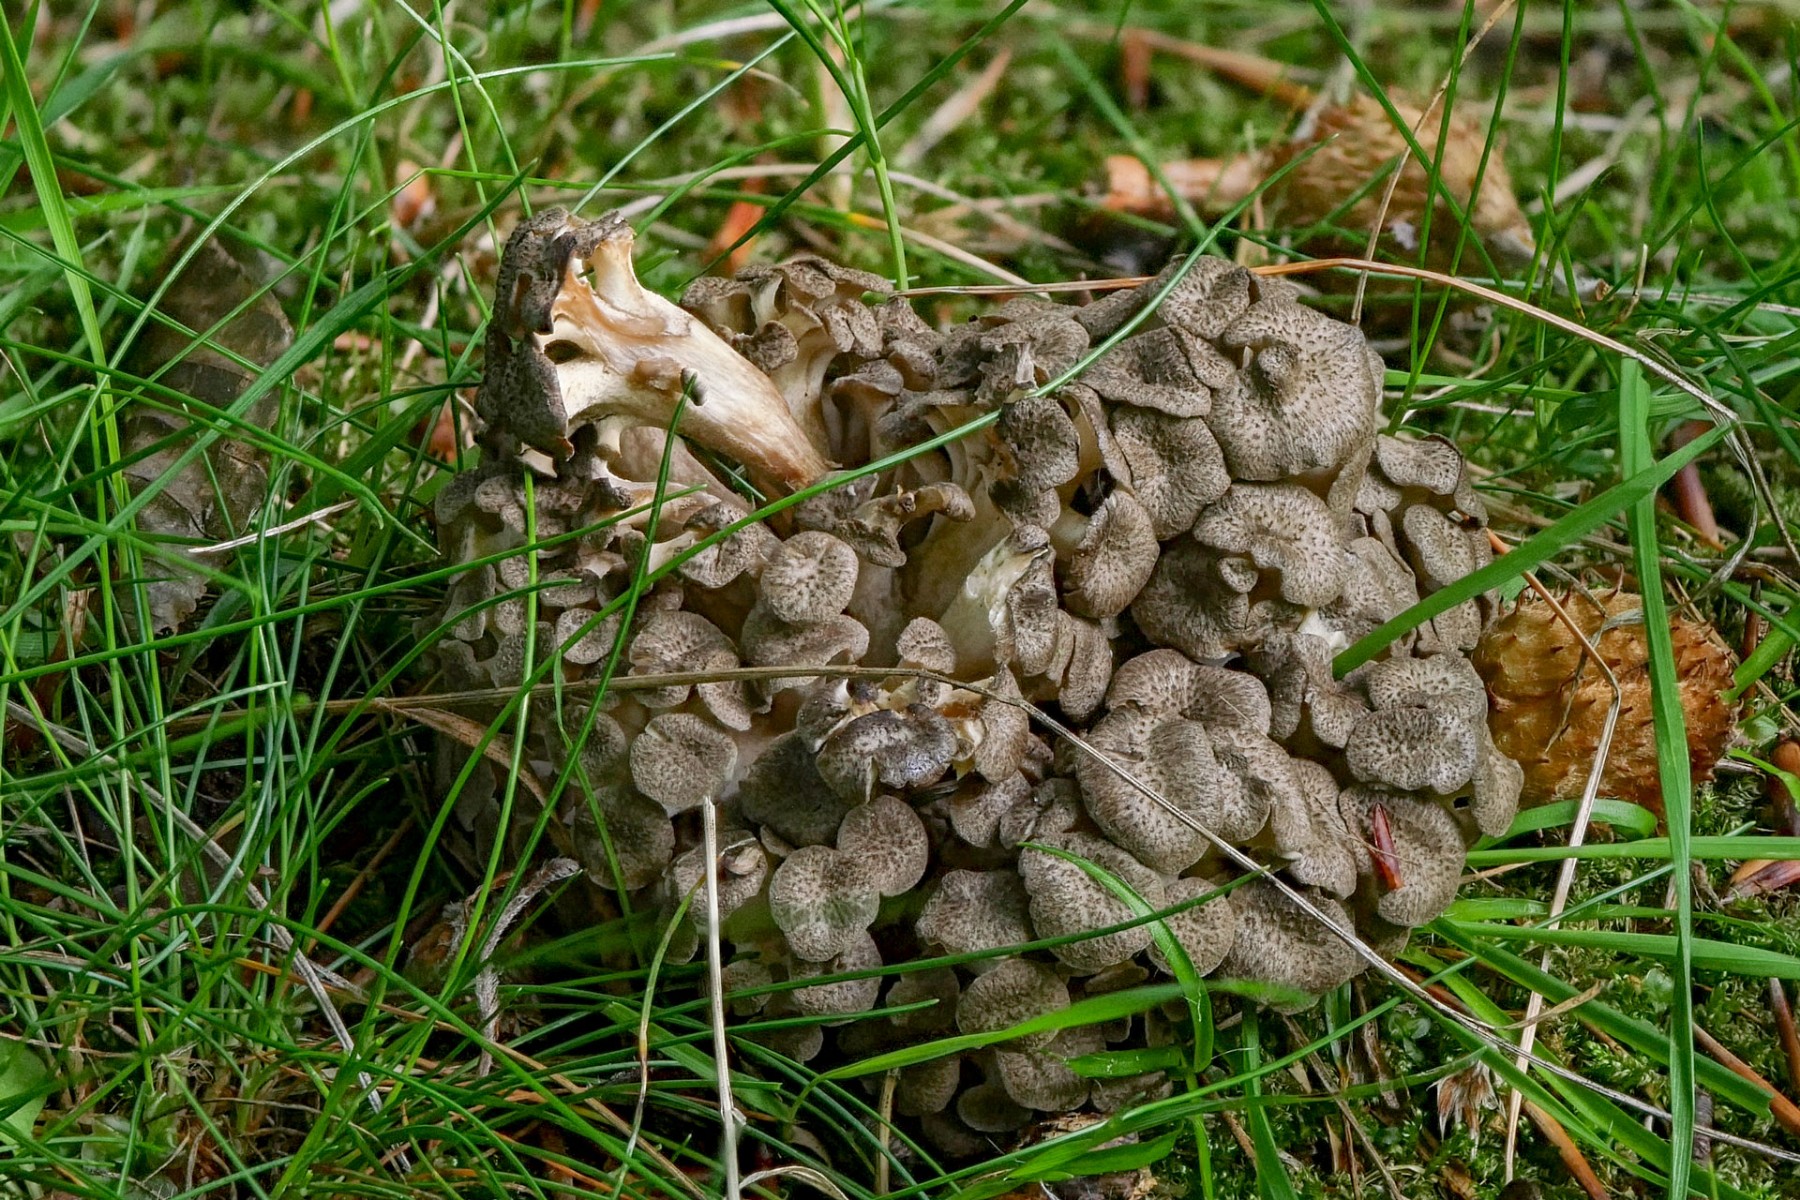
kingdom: Fungi
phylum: Basidiomycota
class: Agaricomycetes
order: Polyporales
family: Polyporaceae
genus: Polyporus
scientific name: Polyporus umbellatus
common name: skærmformet stilkporesvamp
